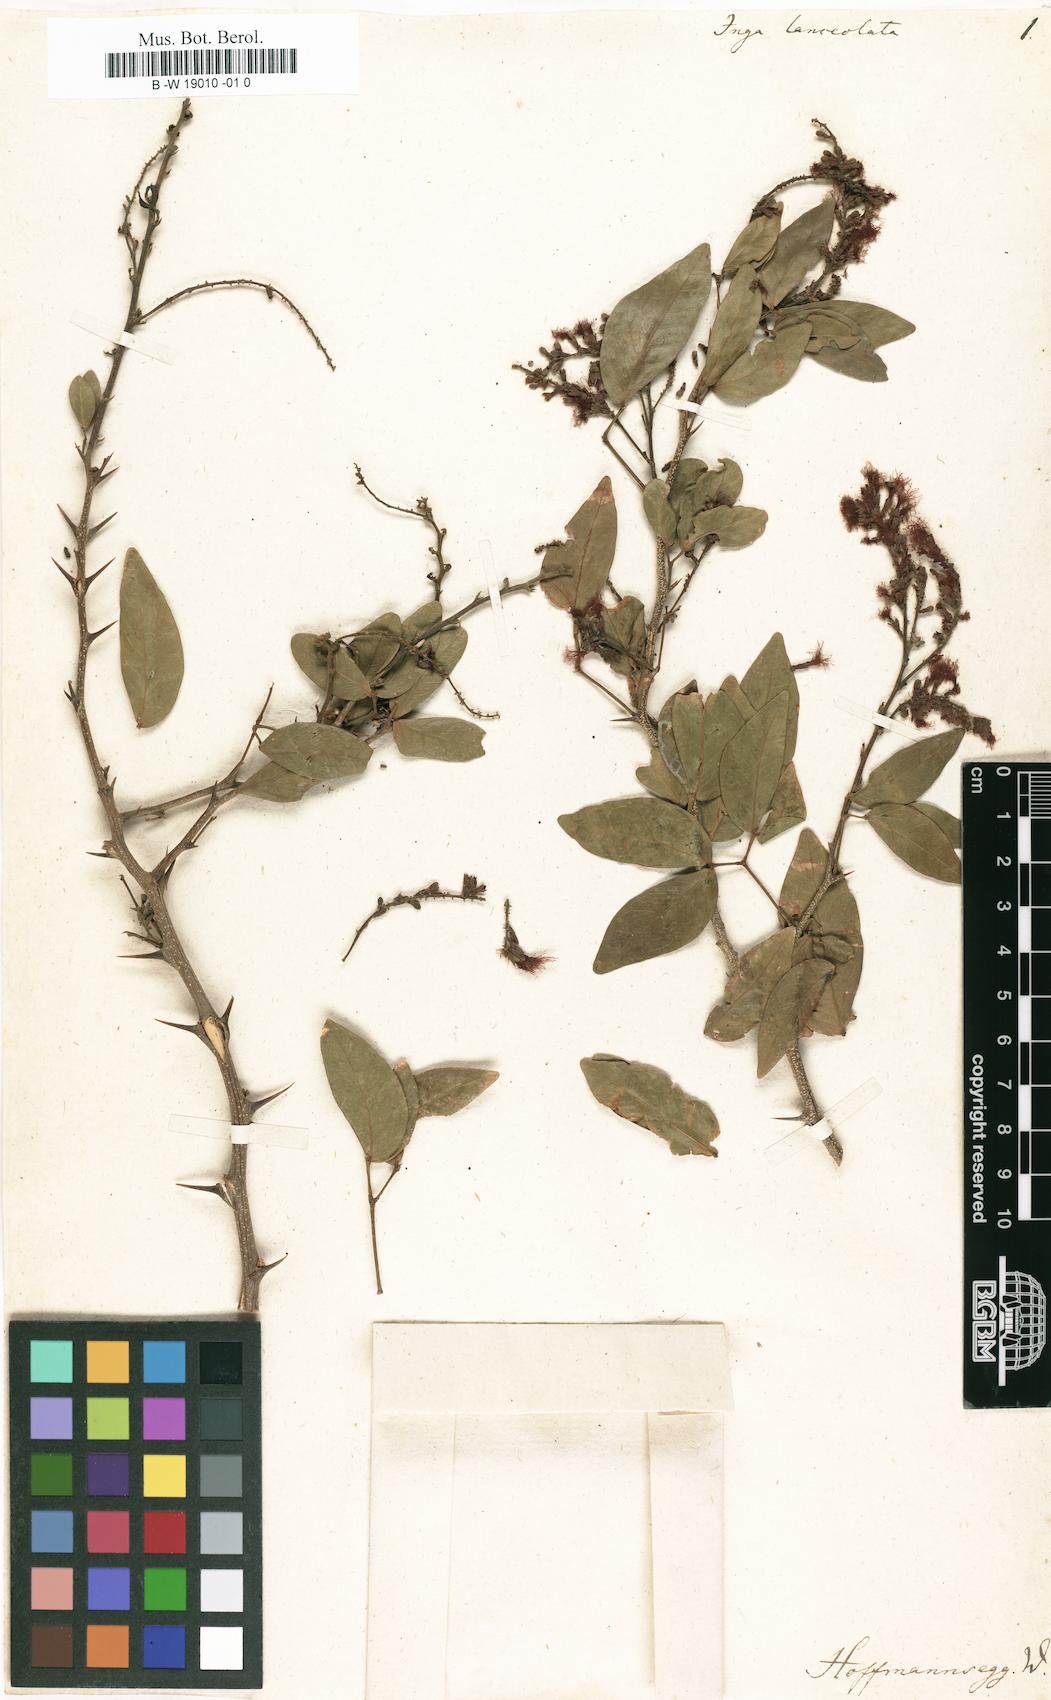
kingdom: Plantae
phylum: Tracheophyta
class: Magnoliopsida
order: Fabales
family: Fabaceae
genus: Pithecellobium
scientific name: Pithecellobium
